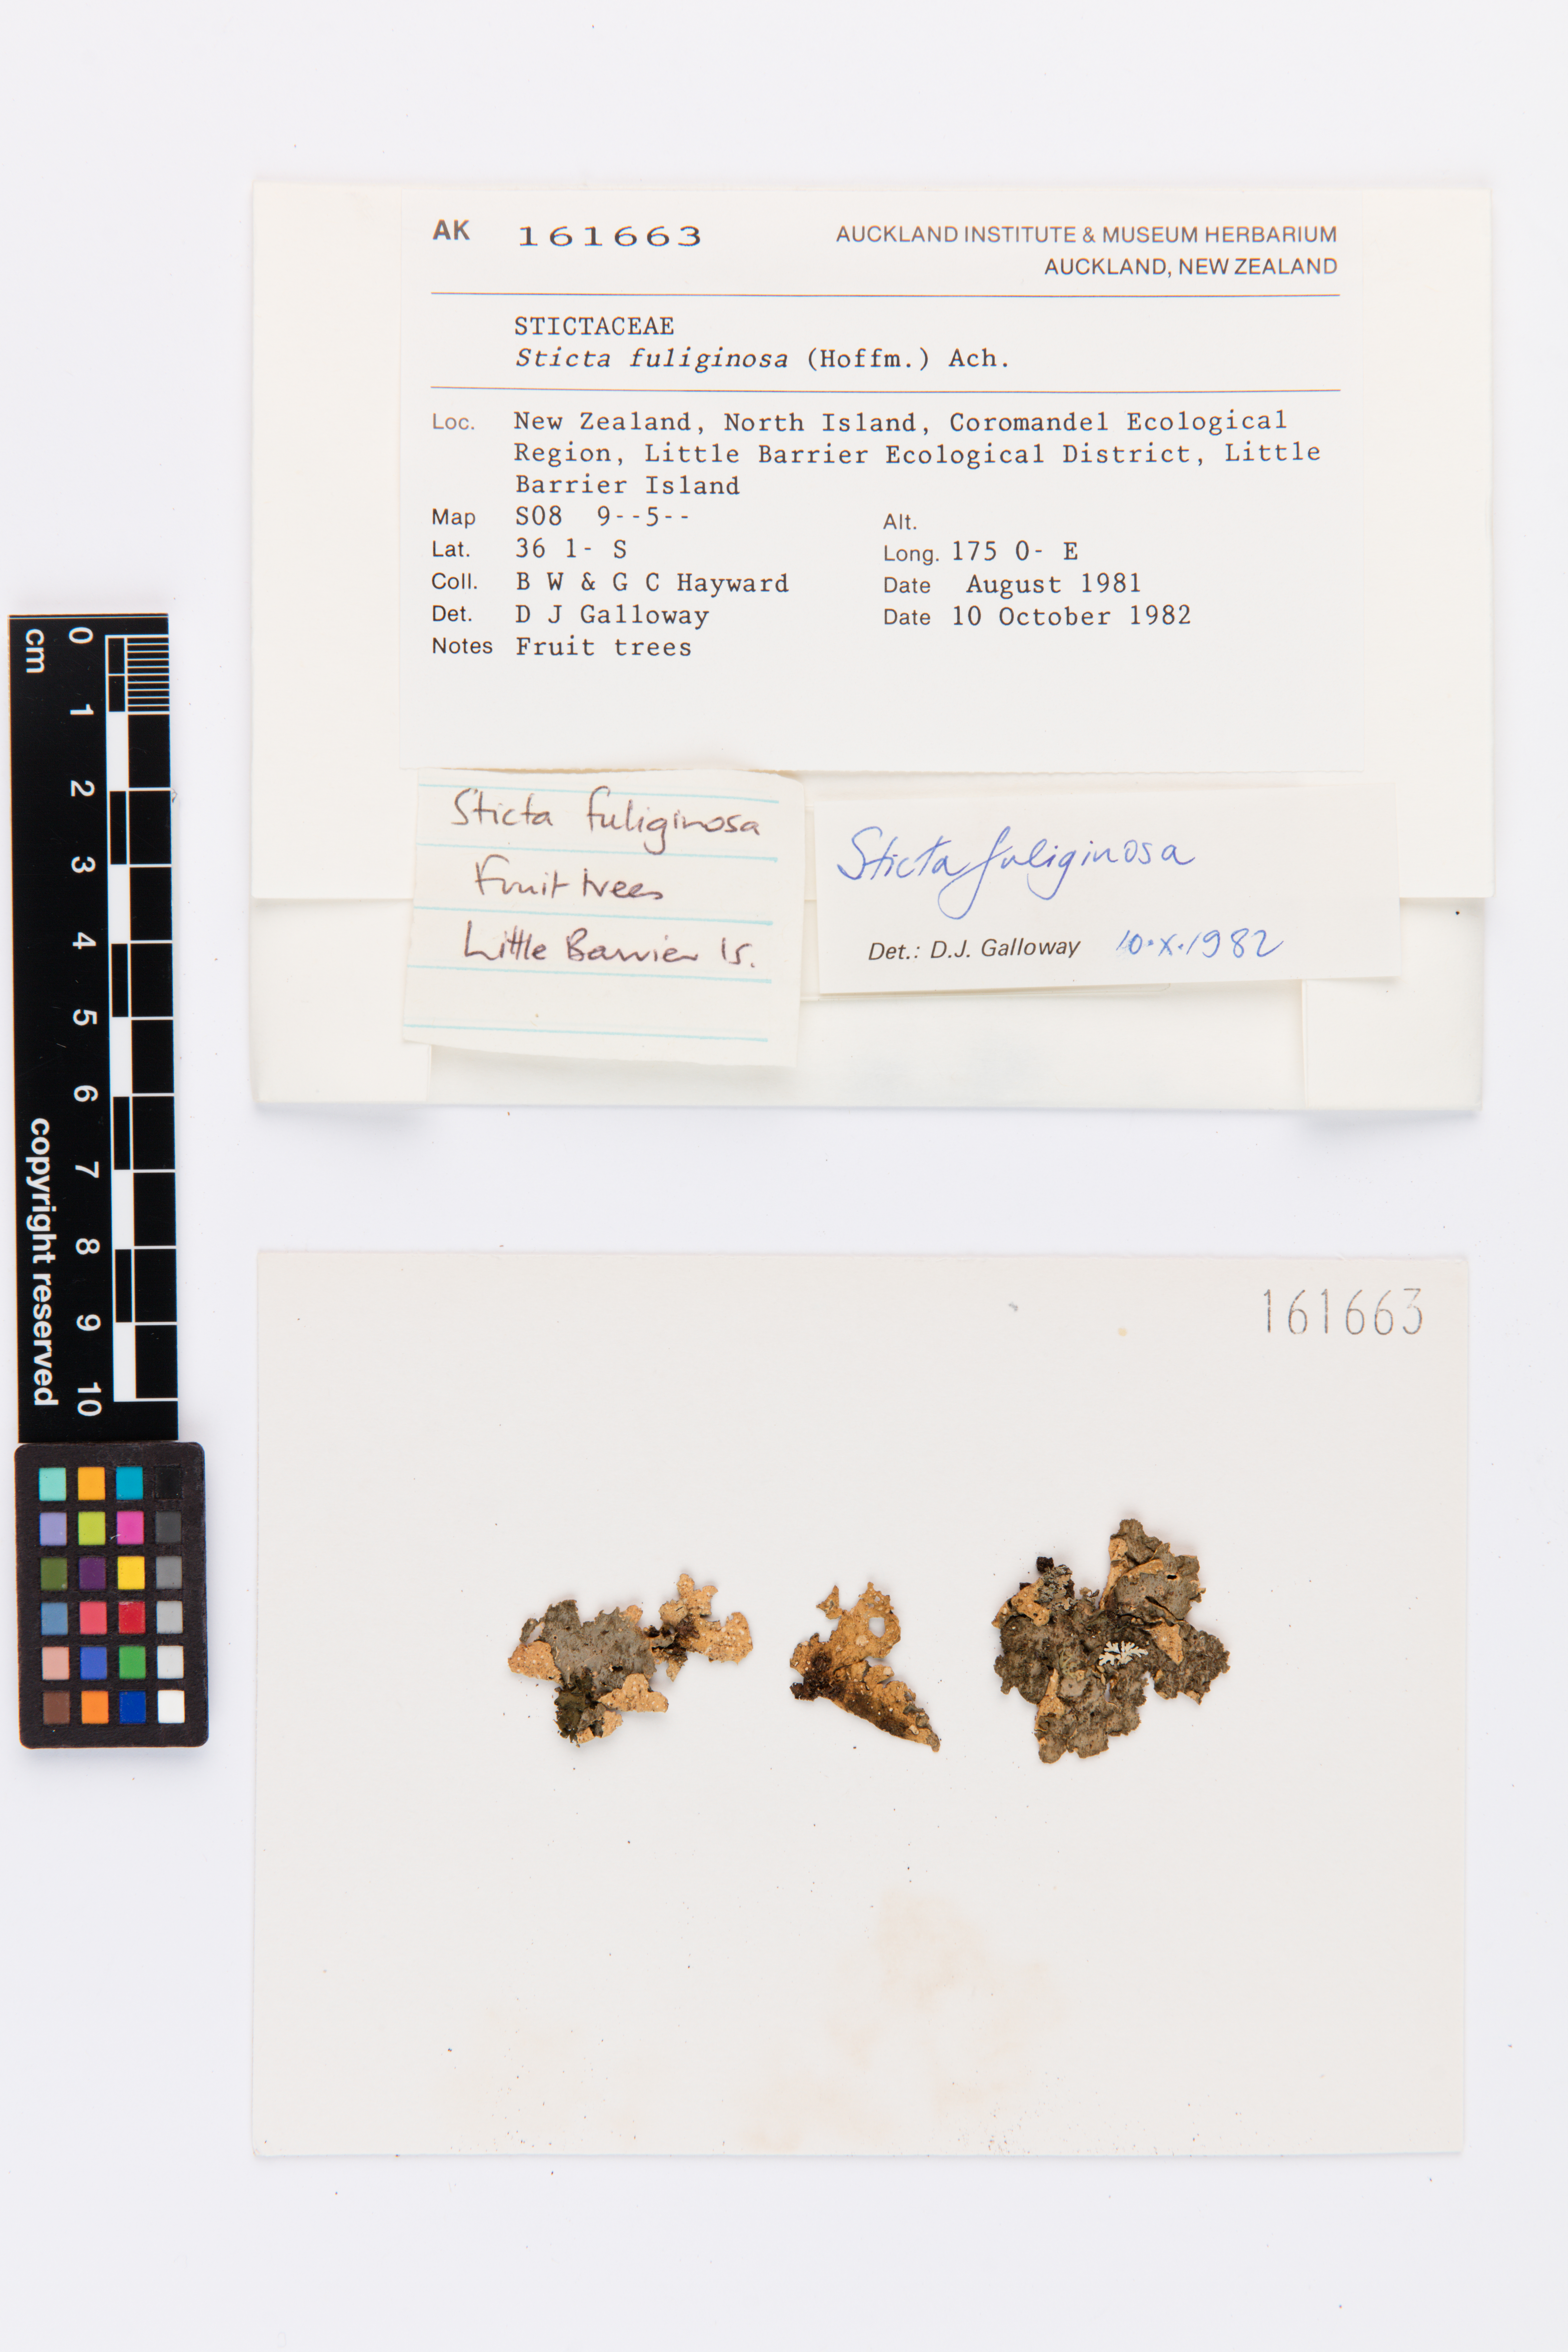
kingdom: Fungi
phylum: Ascomycota
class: Lecanoromycetes
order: Peltigerales
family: Lobariaceae
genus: Sticta
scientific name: Sticta fuliginosa
